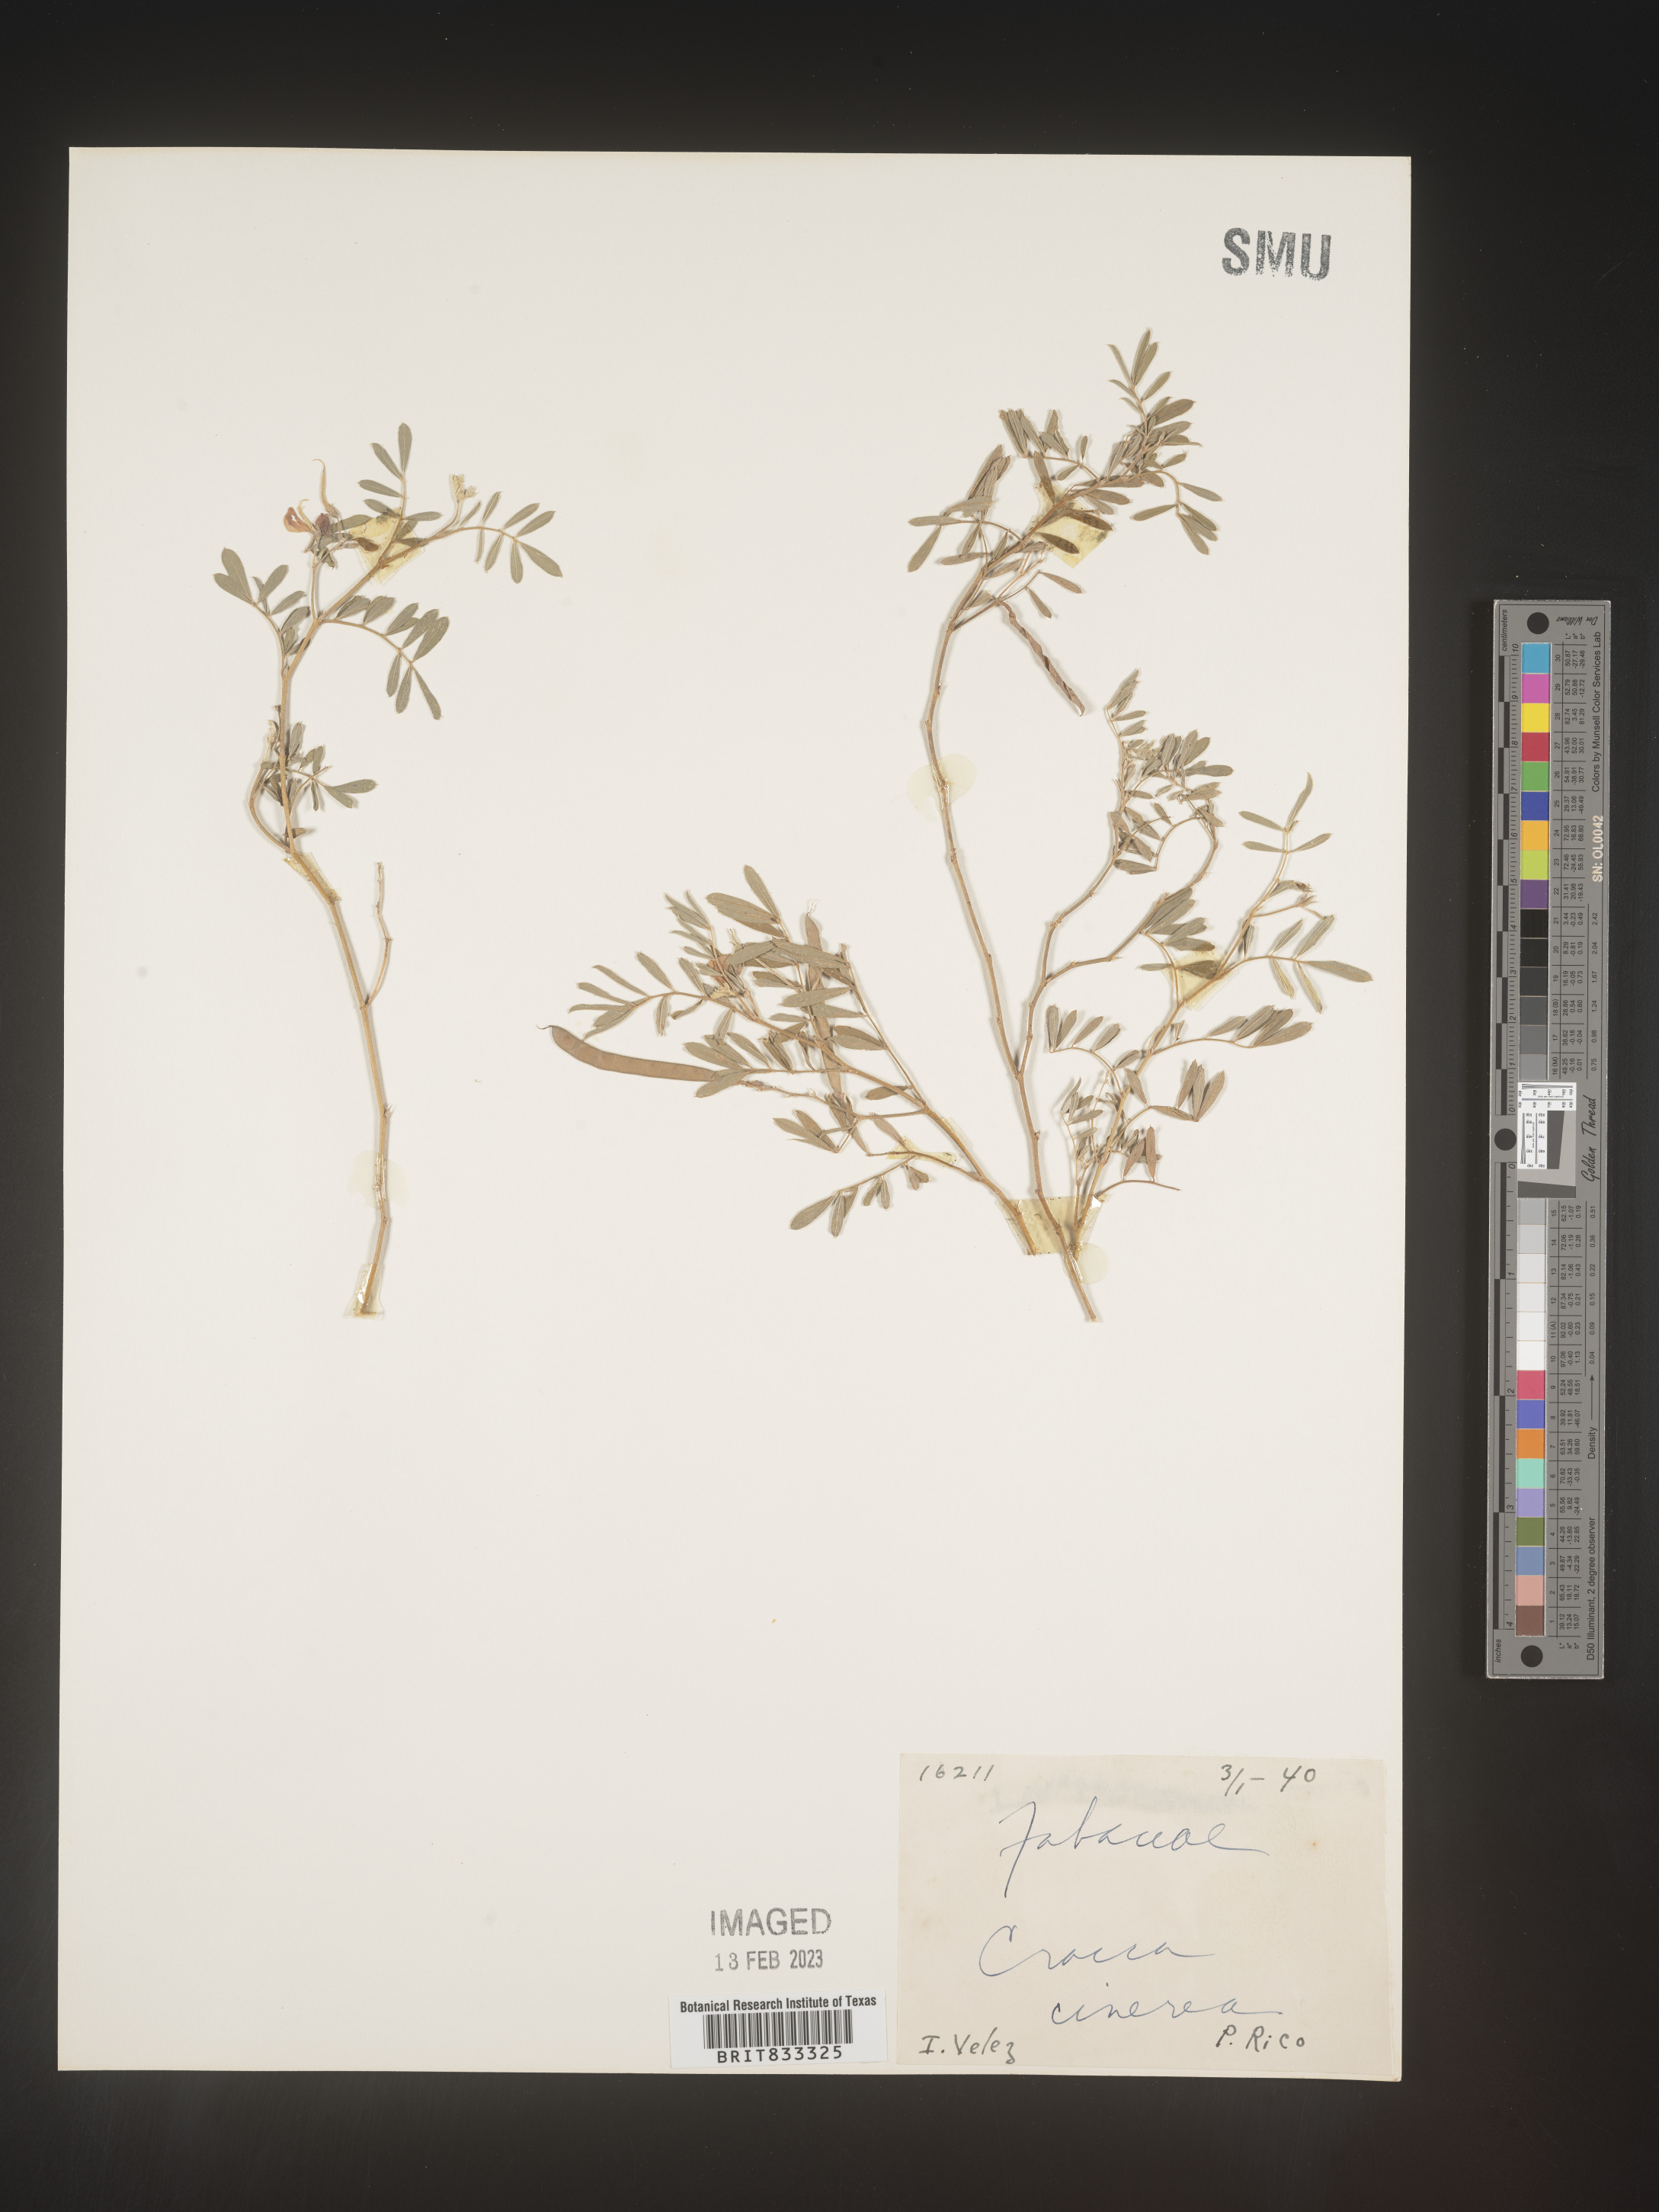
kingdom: Plantae
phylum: Tracheophyta
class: Magnoliopsida
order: Fabales
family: Fabaceae
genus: Tephrosia
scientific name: Tephrosia
